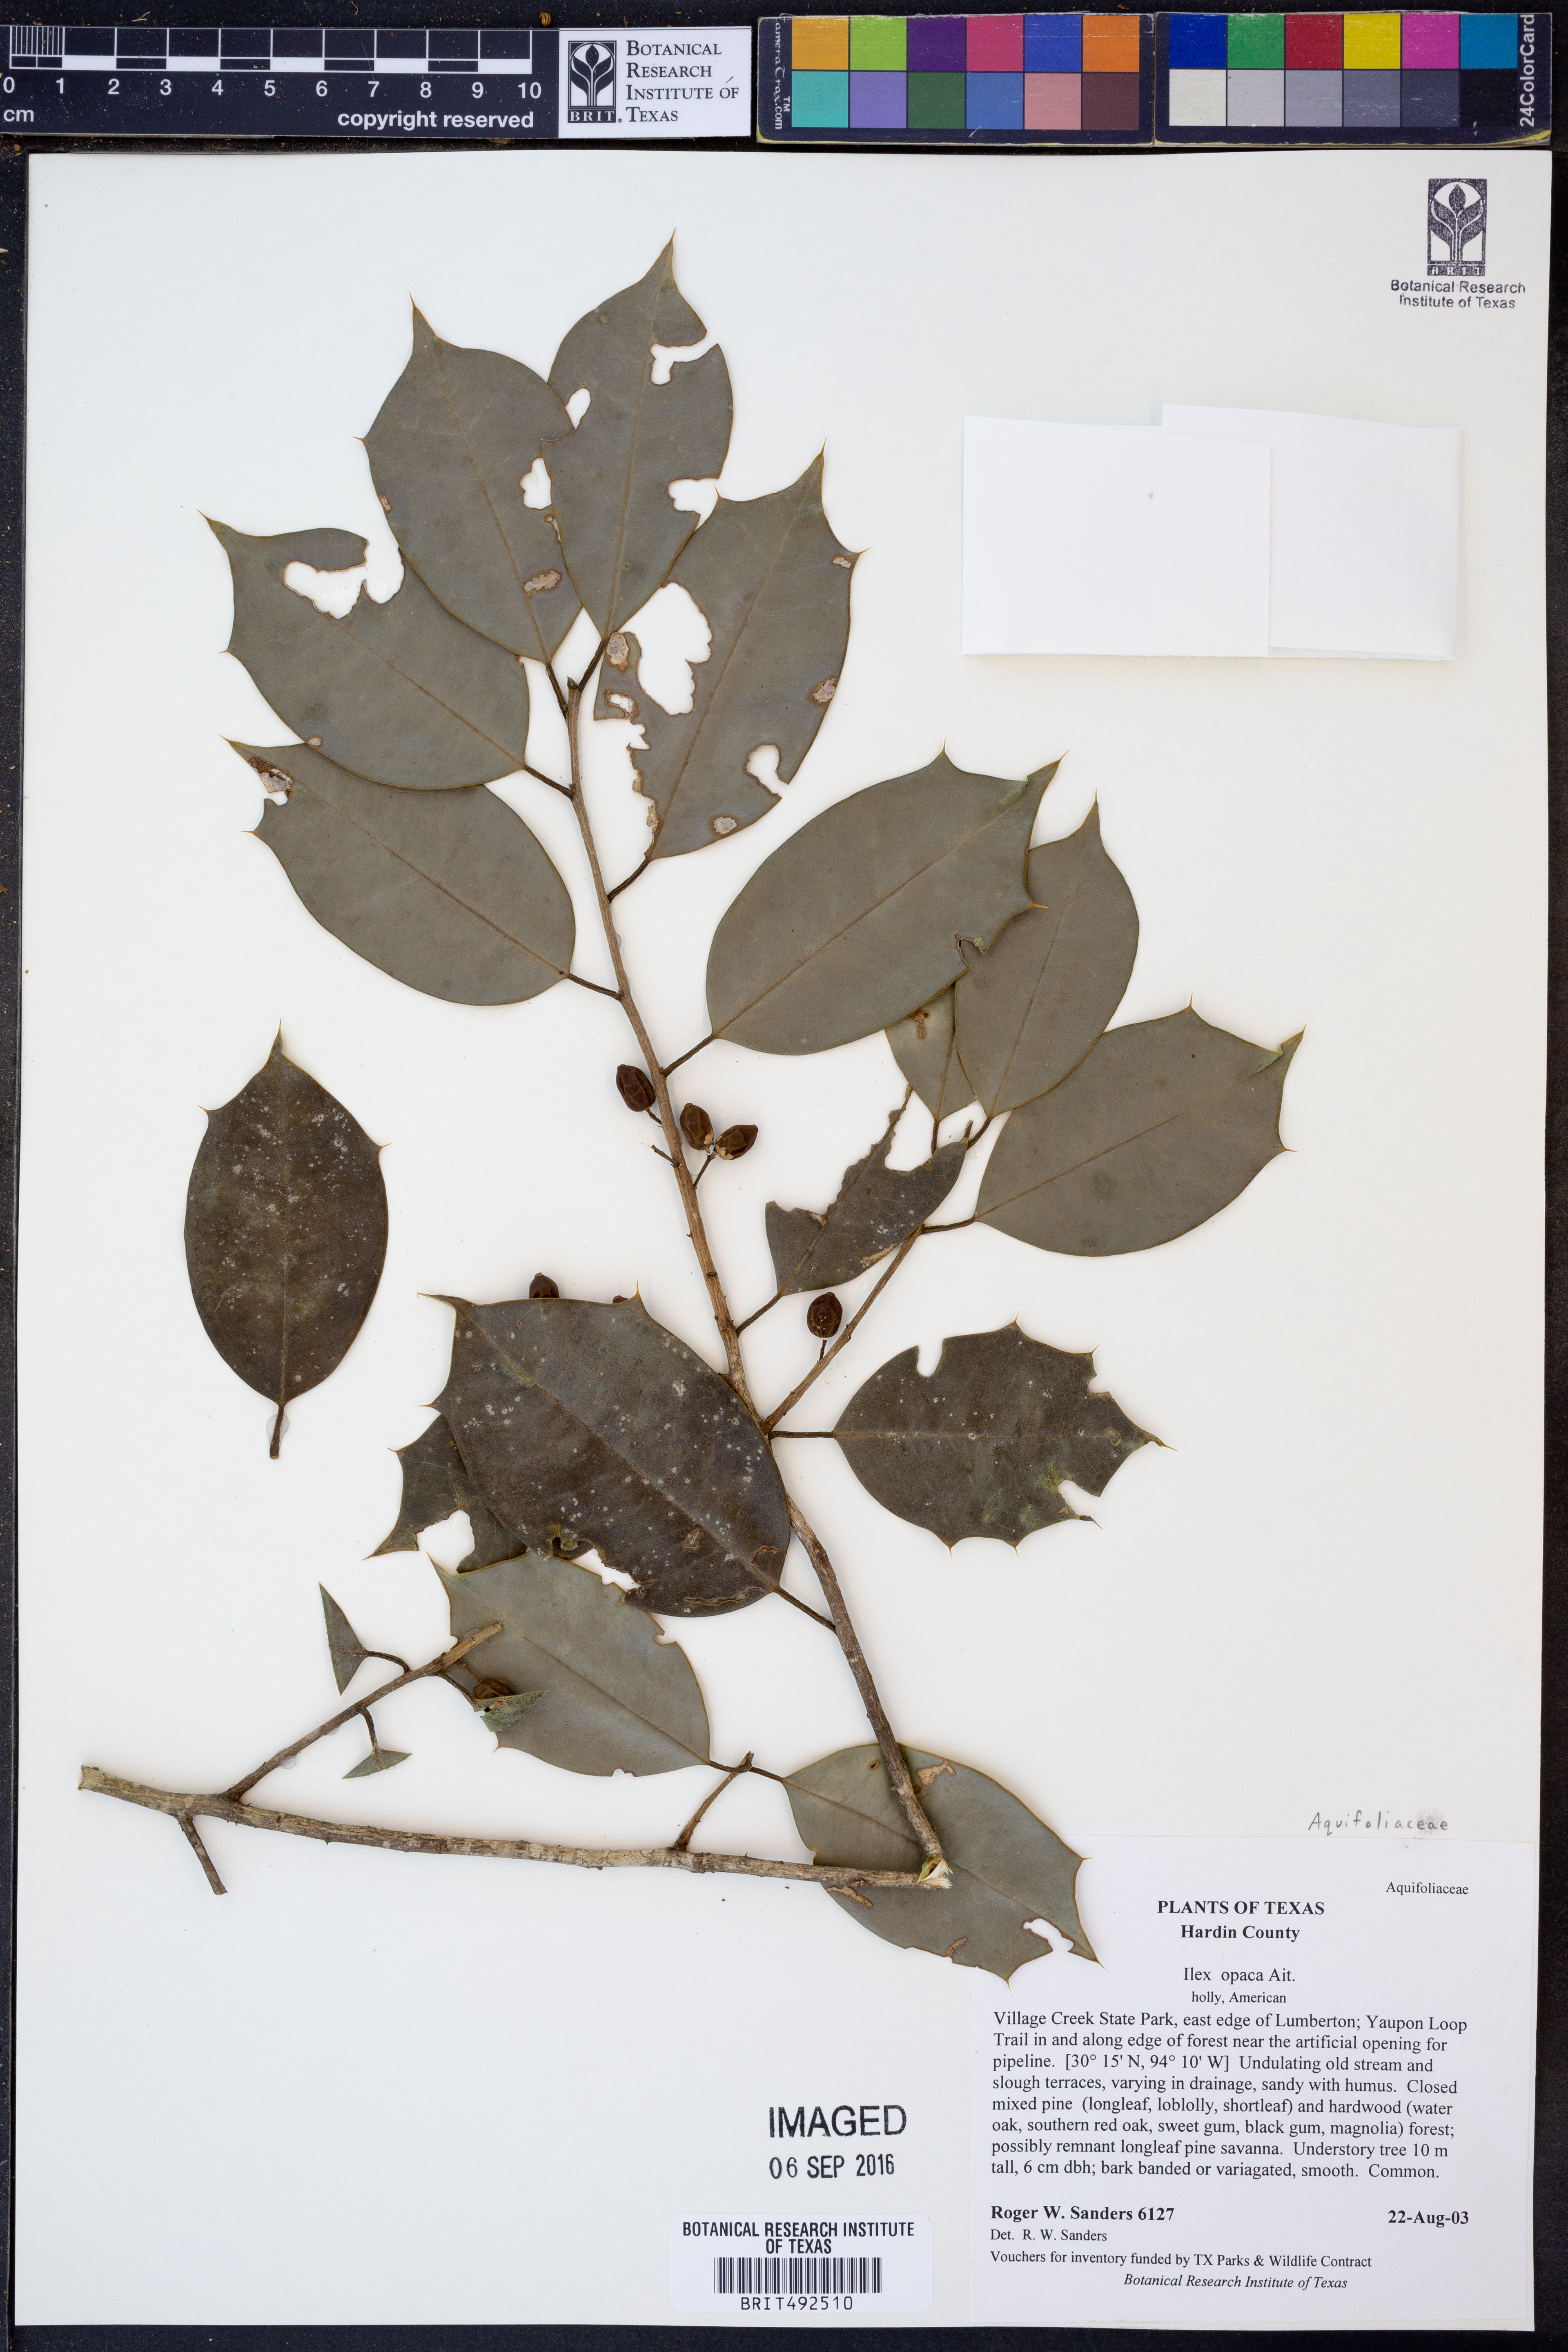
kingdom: Plantae
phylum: Tracheophyta
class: Magnoliopsida
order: Aquifoliales
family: Aquifoliaceae
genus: Ilex
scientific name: Ilex opaca
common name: American holly
